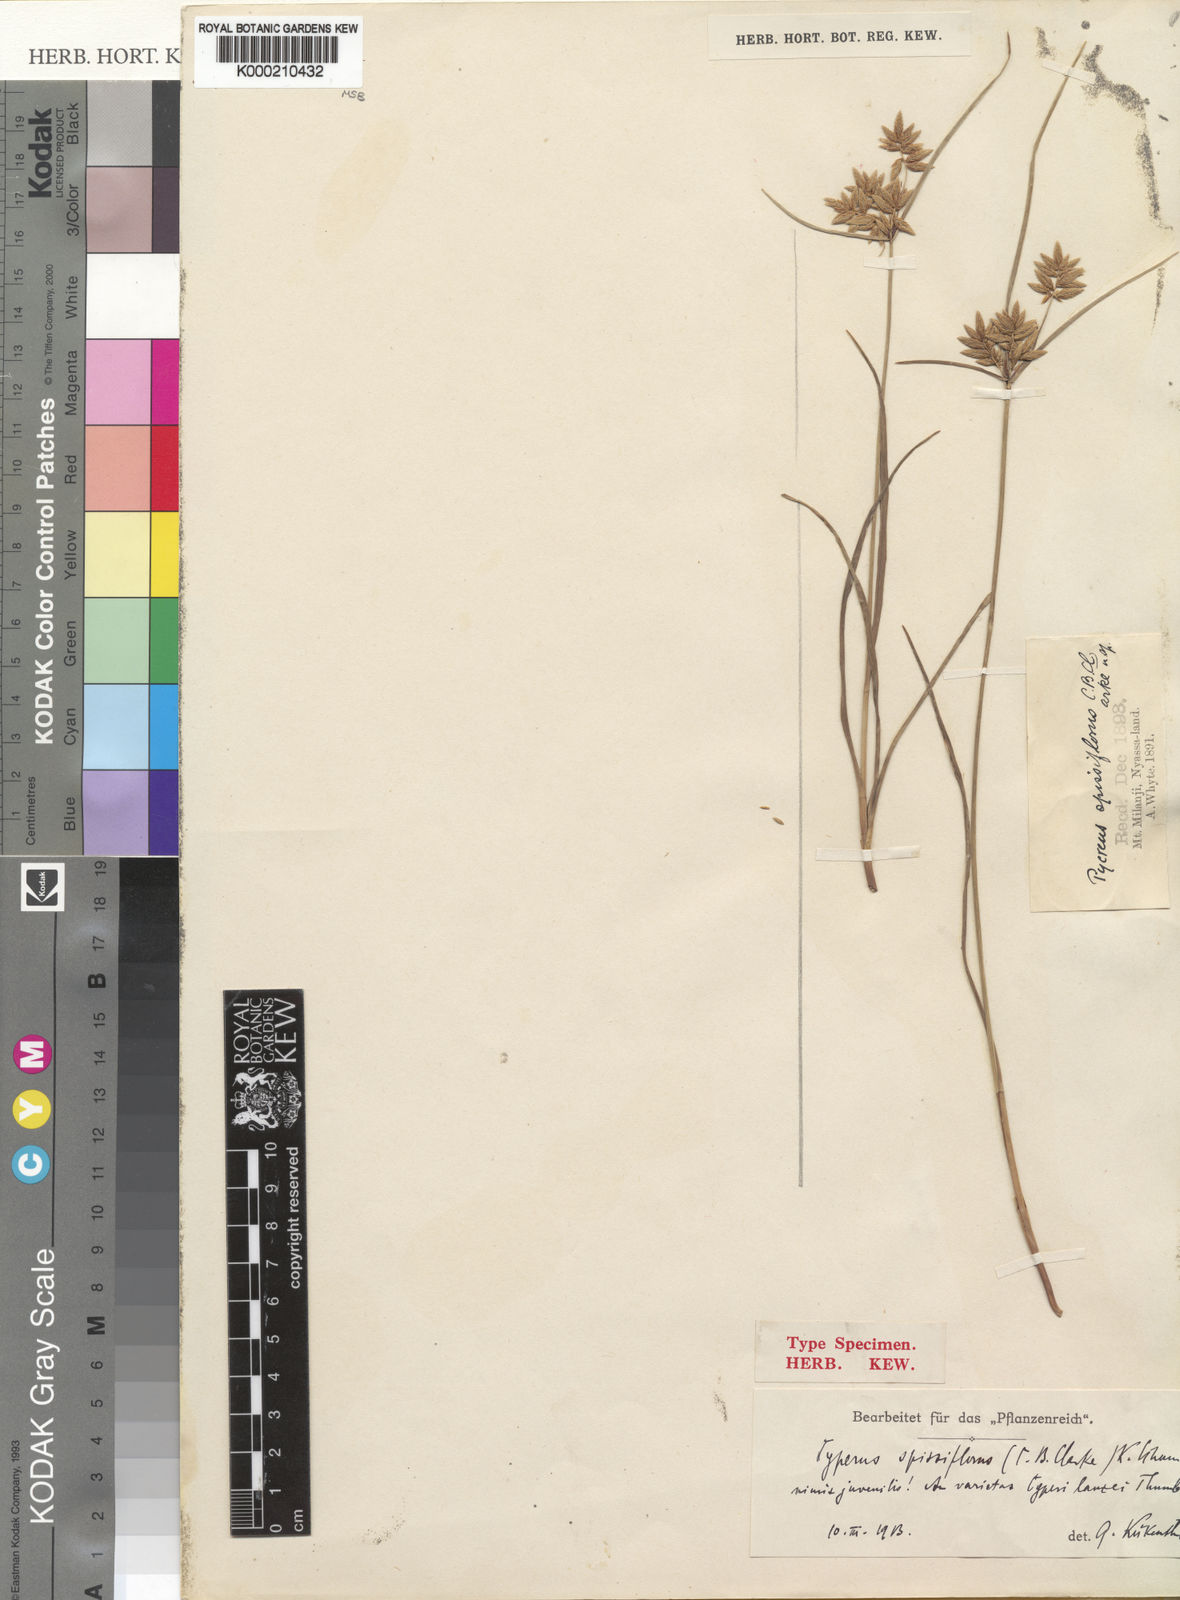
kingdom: Plantae
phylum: Tracheophyta
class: Liliopsida
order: Poales
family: Cyperaceae
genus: Cyperus
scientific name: Cyperus unioloides
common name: Uniola flatsedge
